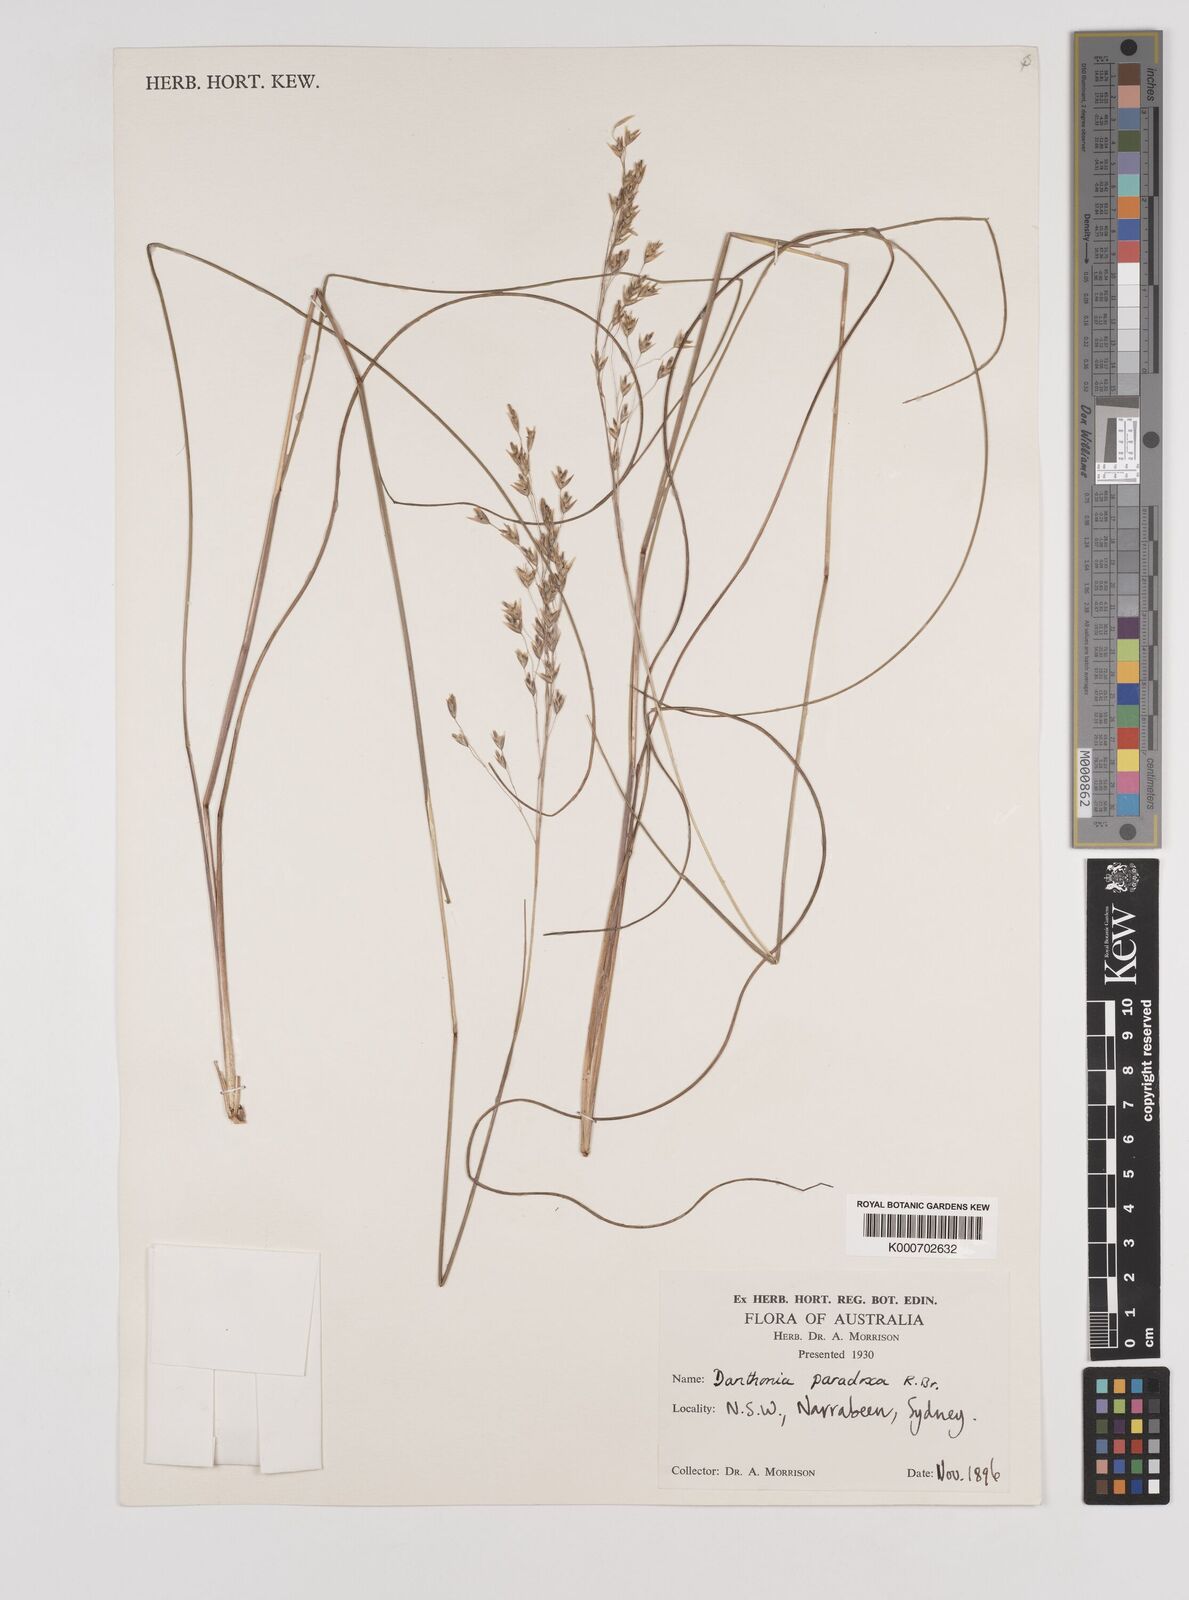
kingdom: Plantae
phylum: Tracheophyta
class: Liliopsida
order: Poales
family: Poaceae
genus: Plinthanthesis
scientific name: Plinthanthesis paradoxa
